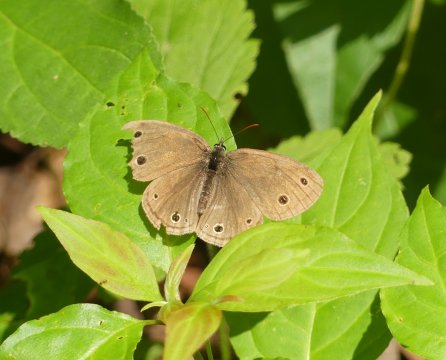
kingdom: Animalia
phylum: Arthropoda
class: Insecta
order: Lepidoptera
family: Nymphalidae
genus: Euptychia
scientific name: Euptychia cymela
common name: Little Wood Satyr
